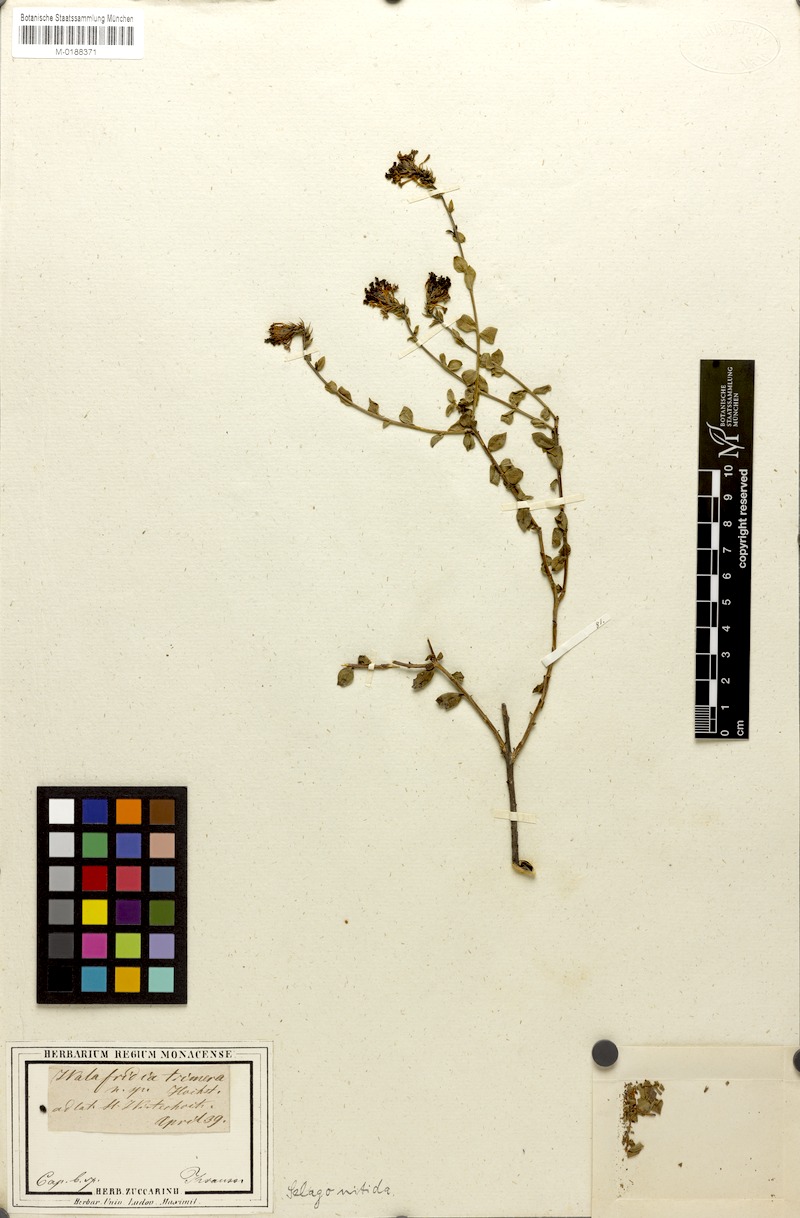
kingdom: Plantae
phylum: Tracheophyta
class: Magnoliopsida
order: Lamiales
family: Scrophulariaceae
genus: Selago
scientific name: Selago myrtifolia
